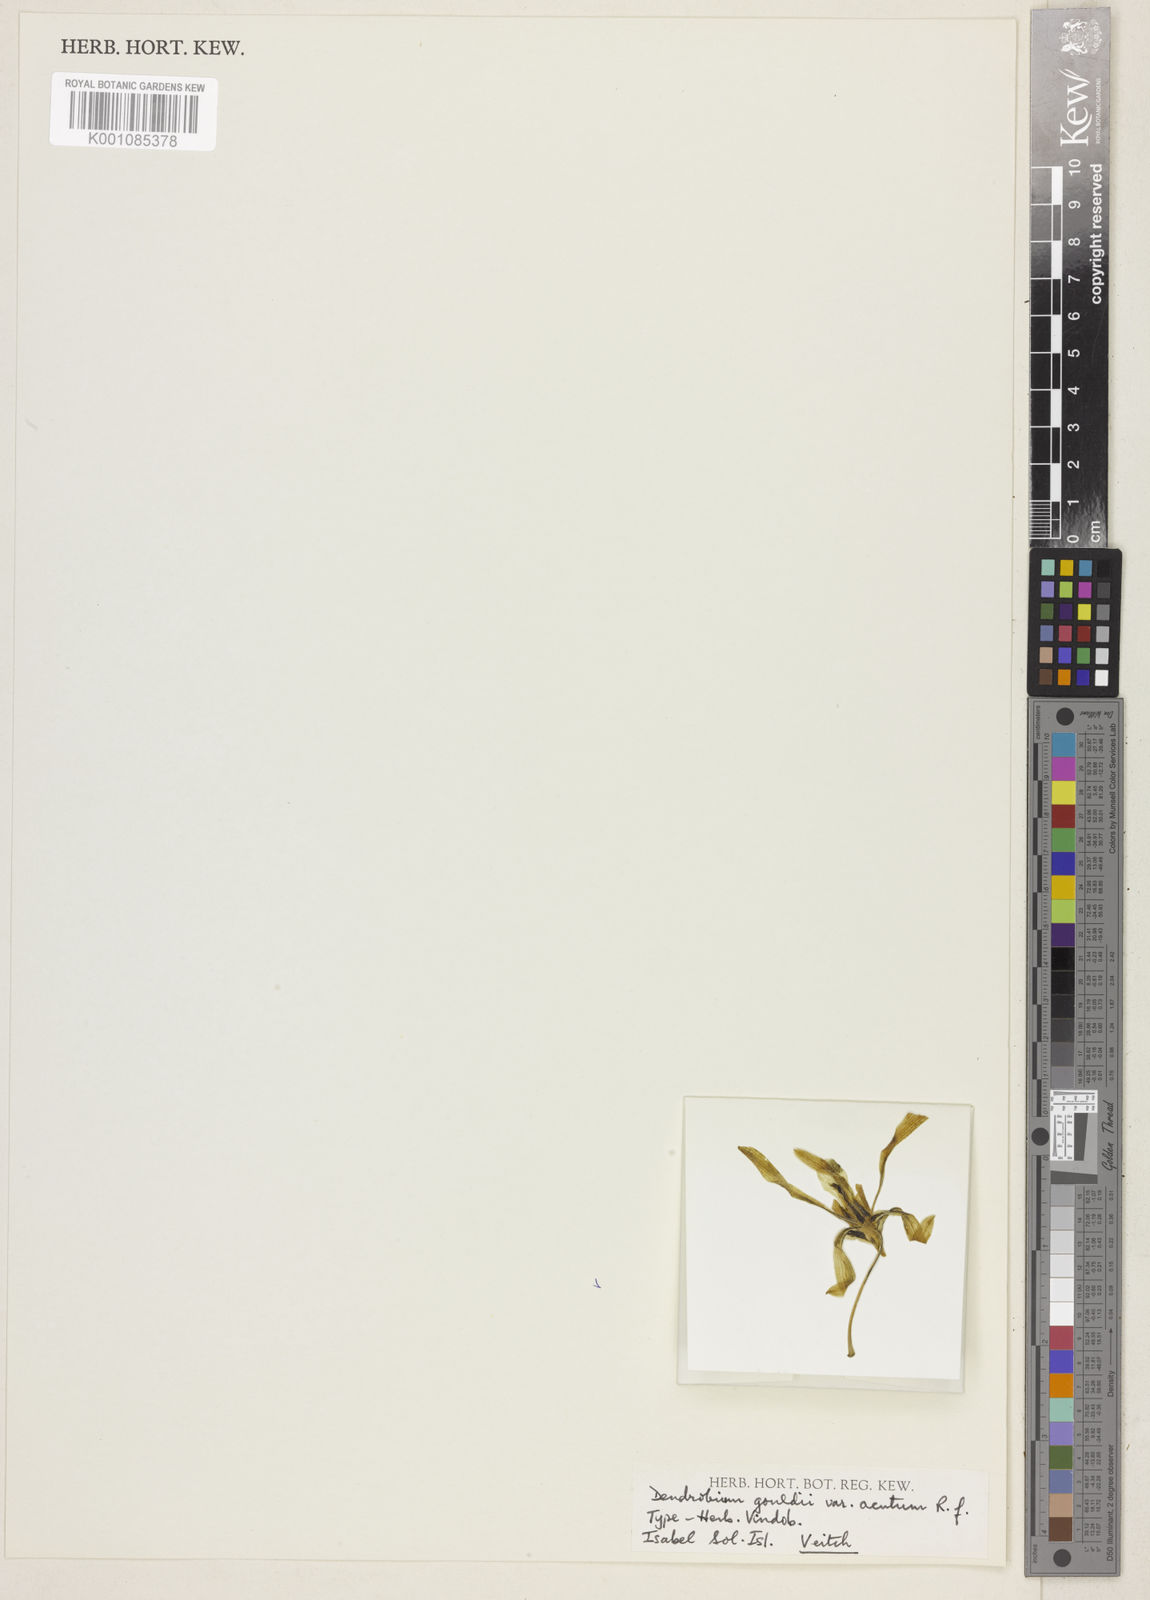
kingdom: Plantae
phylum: Tracheophyta
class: Liliopsida
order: Asparagales
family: Orchidaceae
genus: Dendrobium
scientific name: Dendrobium gouldii
